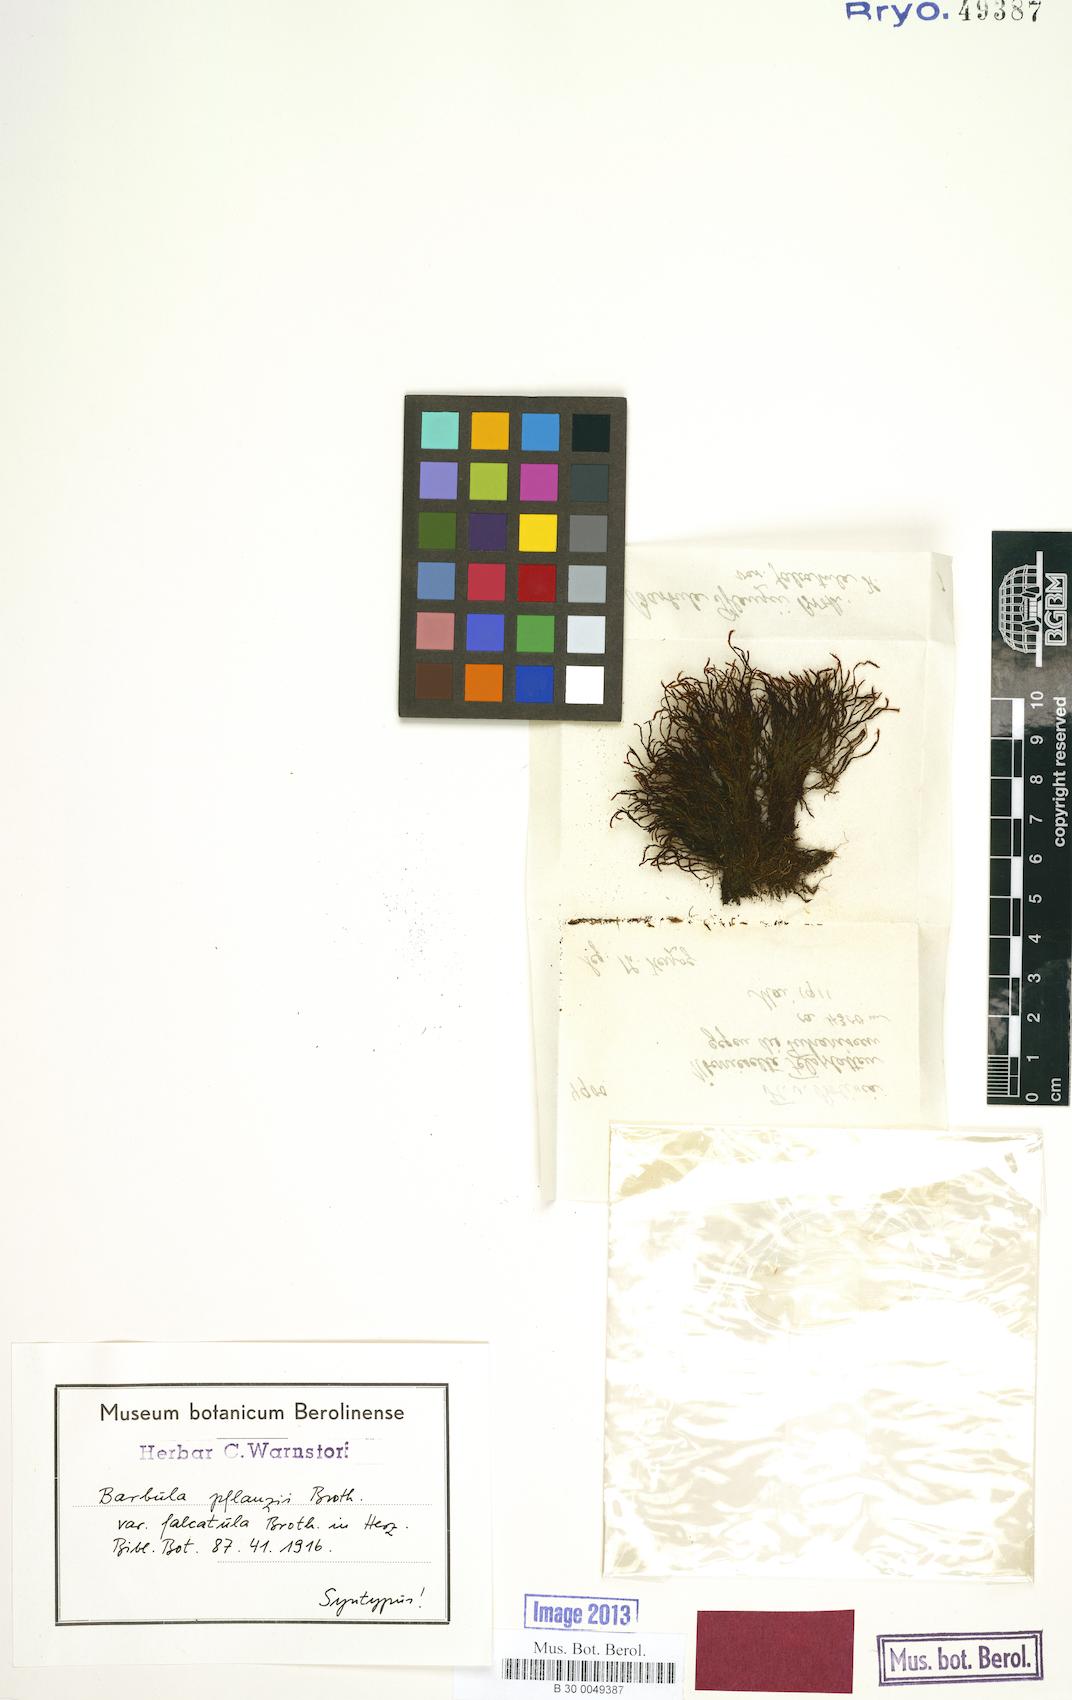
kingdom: Plantae
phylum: Bryophyta
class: Bryopsida
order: Pottiales
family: Pottiaceae
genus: Tortula
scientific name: Tortula vahliana
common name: Chalk screw-moss
